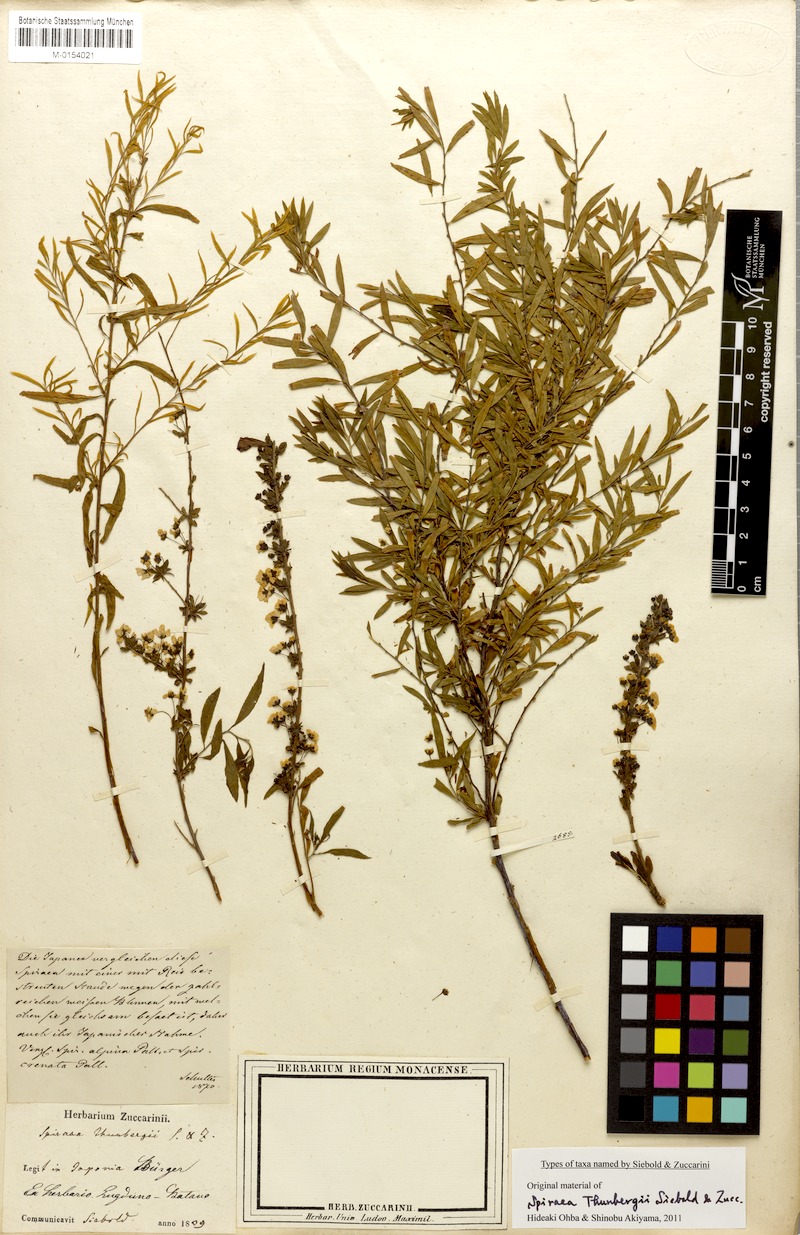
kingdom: Plantae
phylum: Tracheophyta
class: Magnoliopsida
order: Rosales
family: Rosaceae
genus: Spiraea
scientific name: Spiraea thunbergii
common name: Thunberg's meadowsweet
